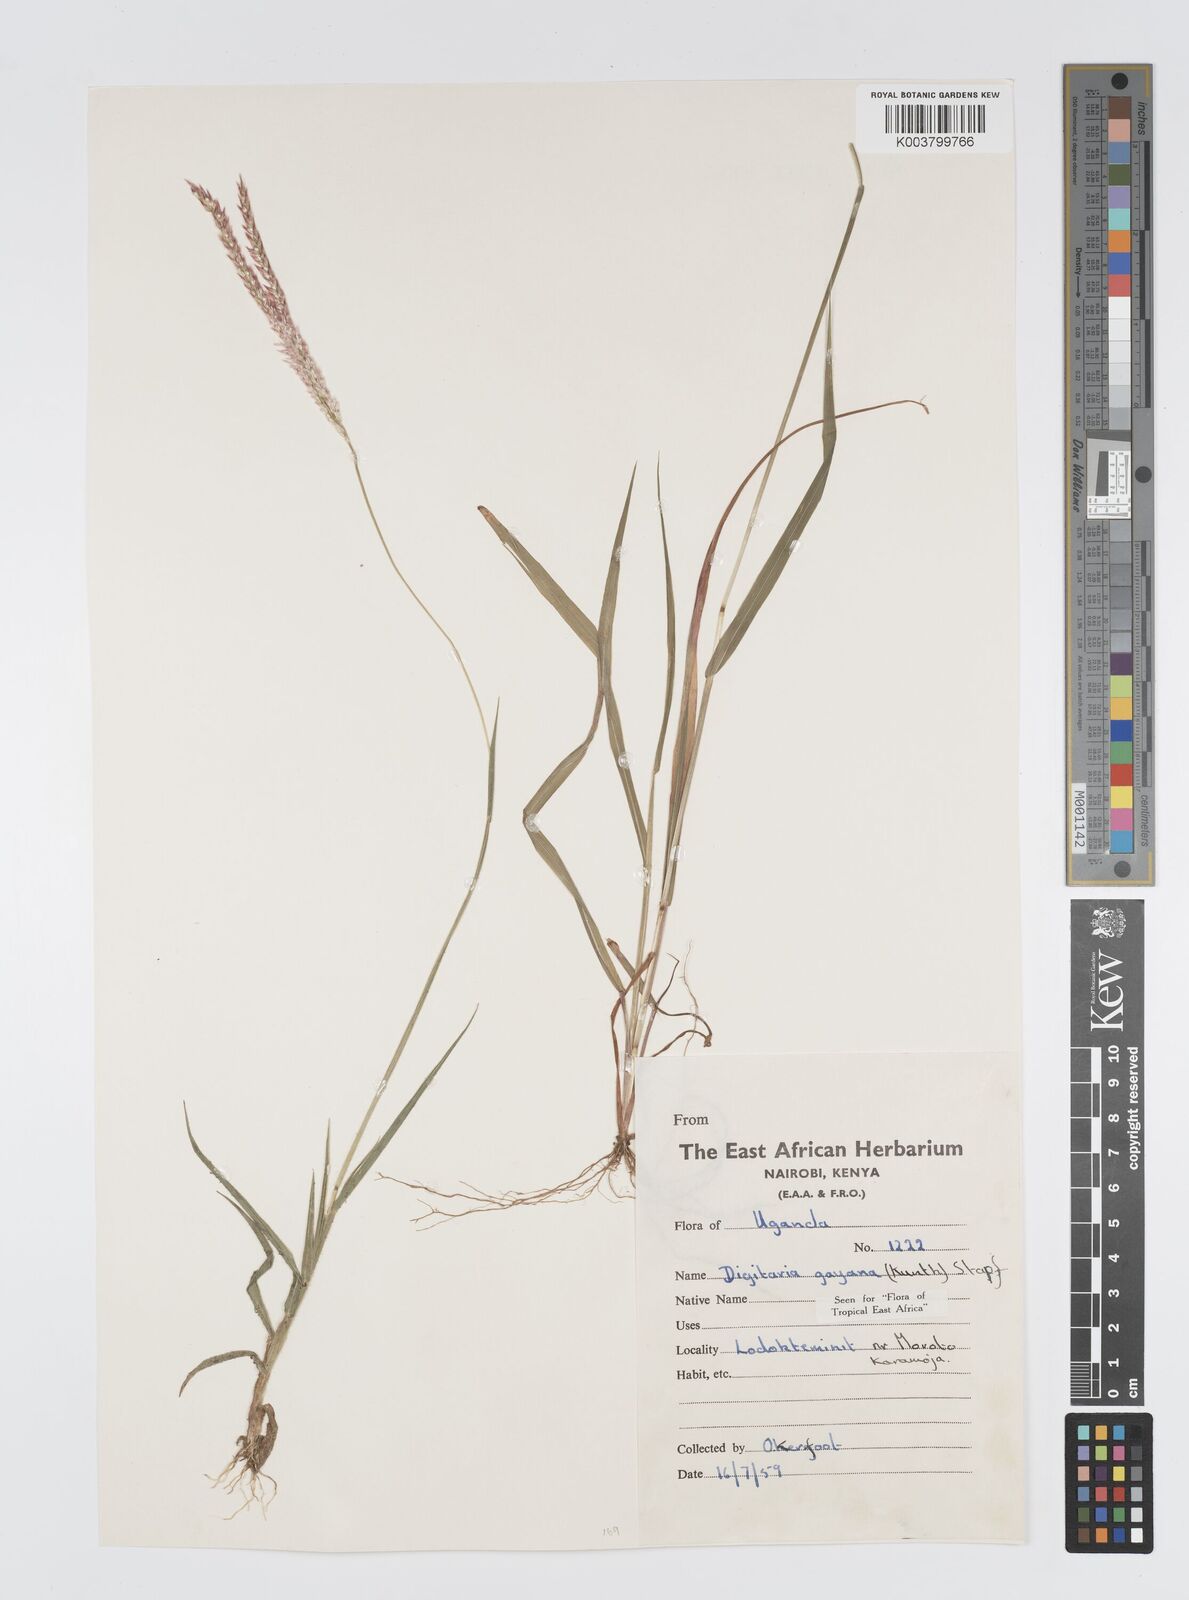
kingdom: Plantae
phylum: Tracheophyta
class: Liliopsida
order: Poales
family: Poaceae
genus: Digitaria
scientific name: Digitaria gayana
